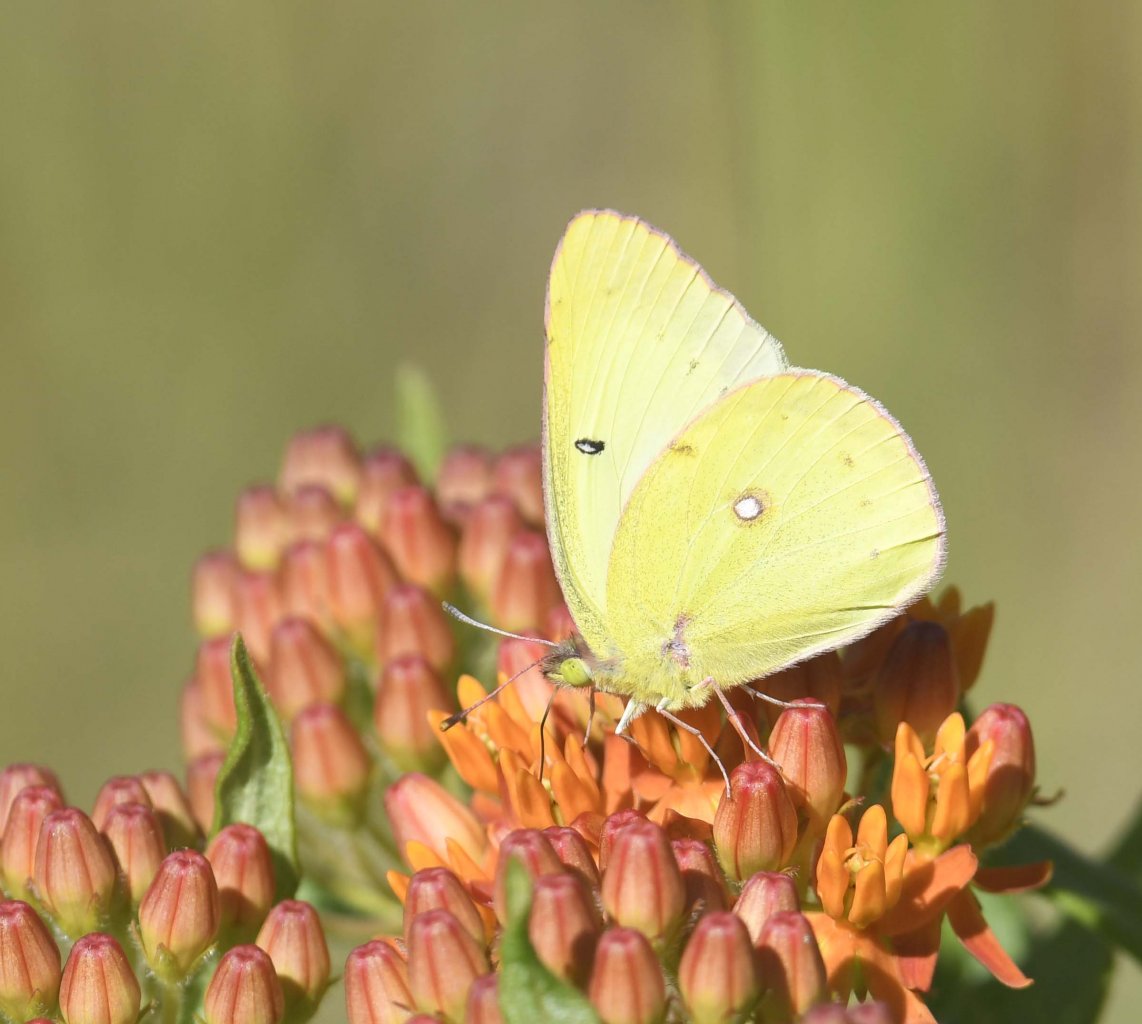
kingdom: Animalia
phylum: Arthropoda
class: Insecta
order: Lepidoptera
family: Pieridae
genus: Colias
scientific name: Colias philodice
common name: Clouded Sulphur
